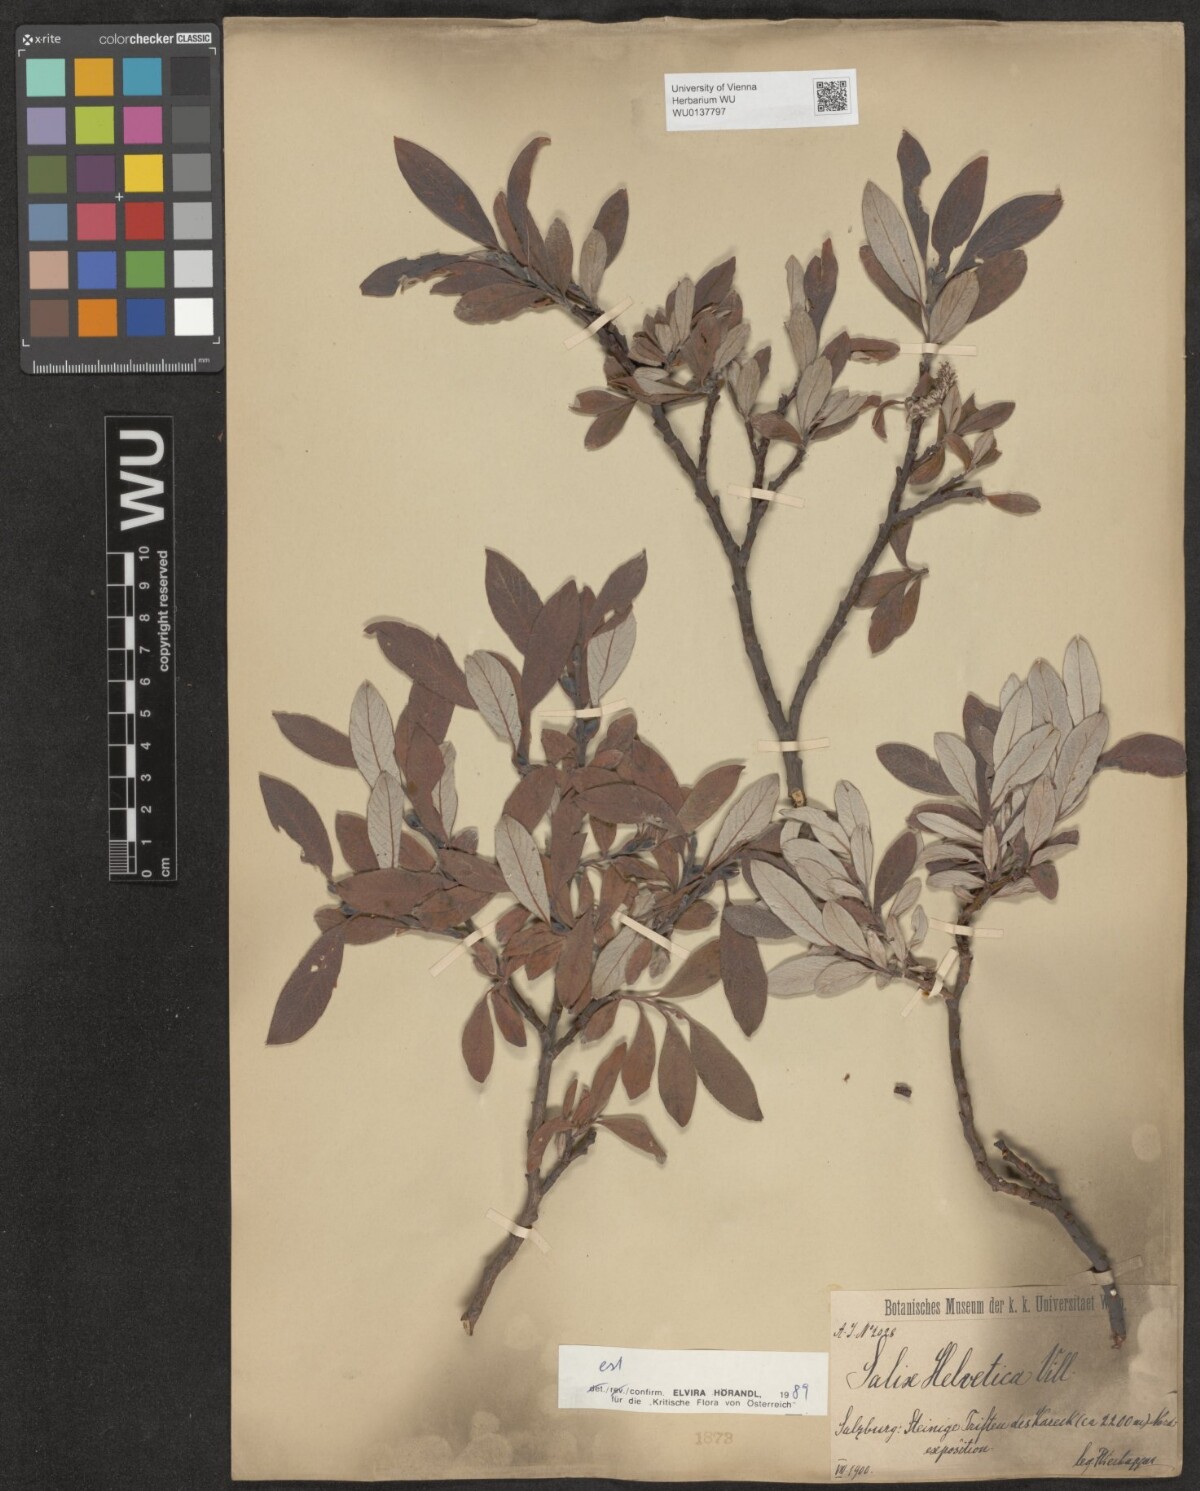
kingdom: Plantae
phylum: Tracheophyta
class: Magnoliopsida
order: Malpighiales
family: Salicaceae
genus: Salix
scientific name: Salix helvetica
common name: Swiss willow
